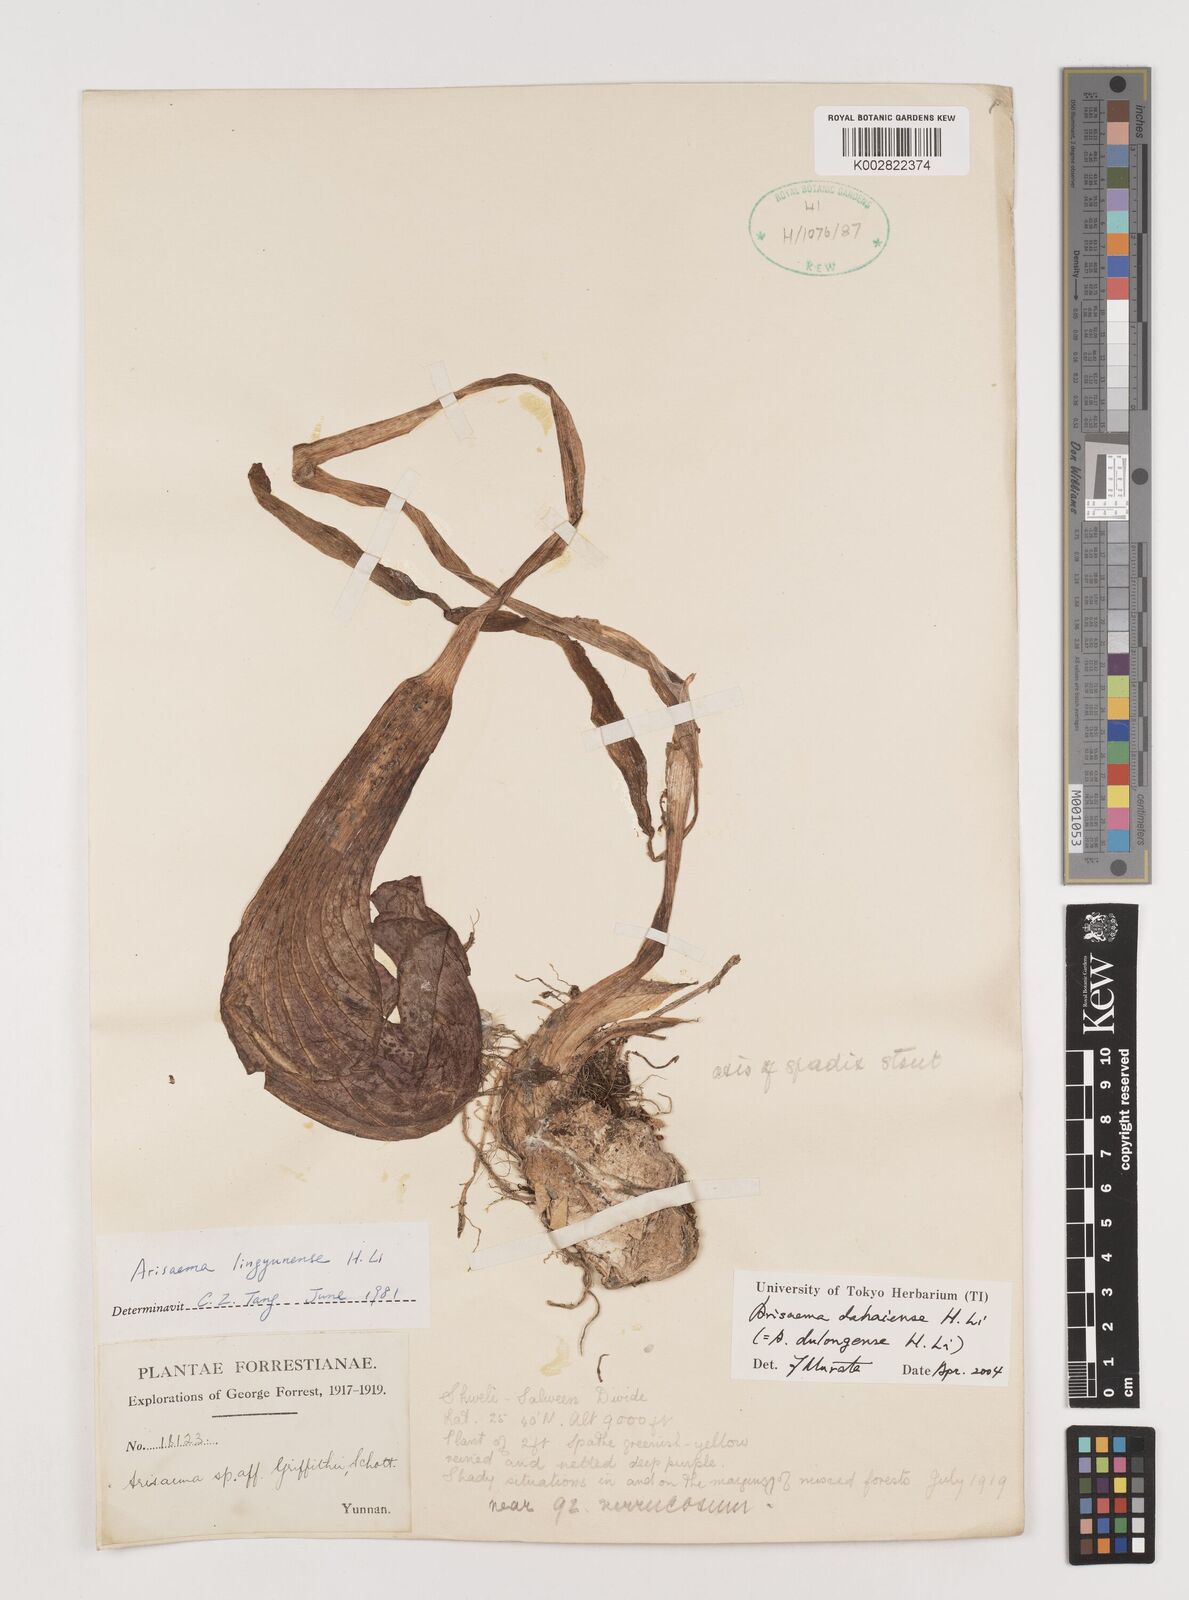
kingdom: Plantae
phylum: Tracheophyta
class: Liliopsida
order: Alismatales
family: Araceae
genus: Arisaema
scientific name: Arisaema dahaiense
